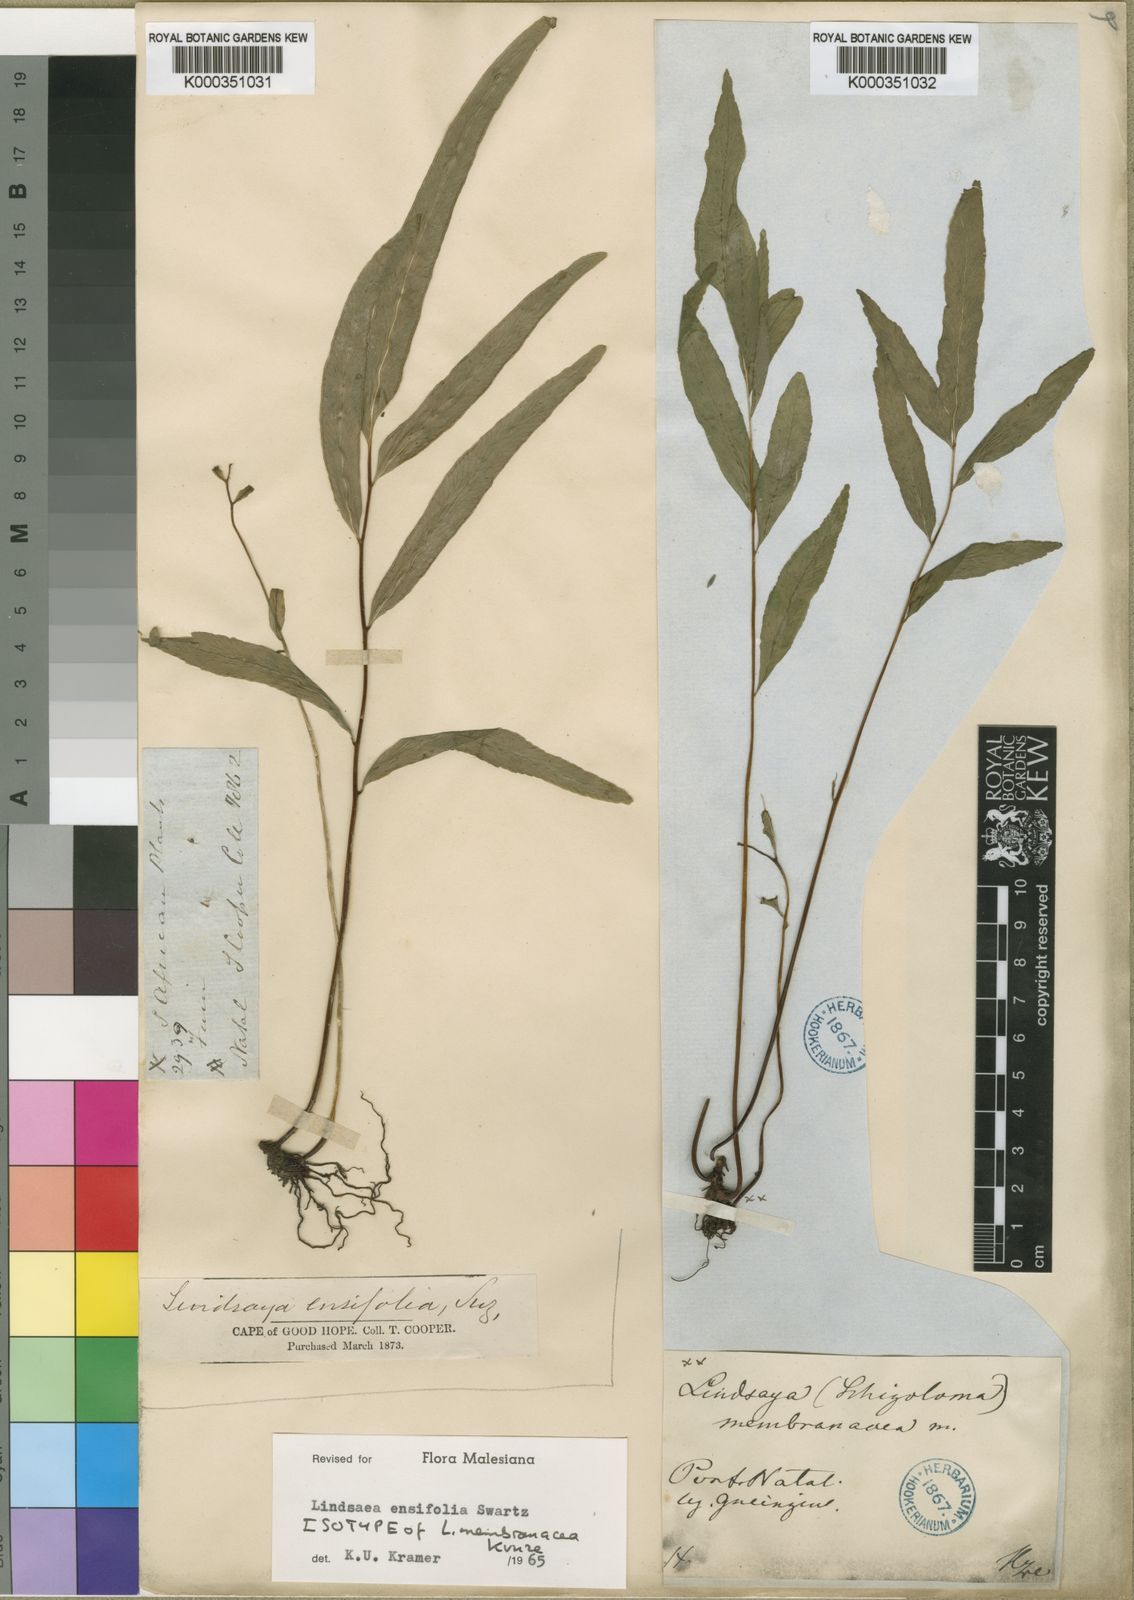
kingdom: Plantae
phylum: Tracheophyta
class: Polypodiopsida
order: Polypodiales
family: Lindsaeaceae
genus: Lindsaea
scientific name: Lindsaea ensifolia
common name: Graceful necklace fern
